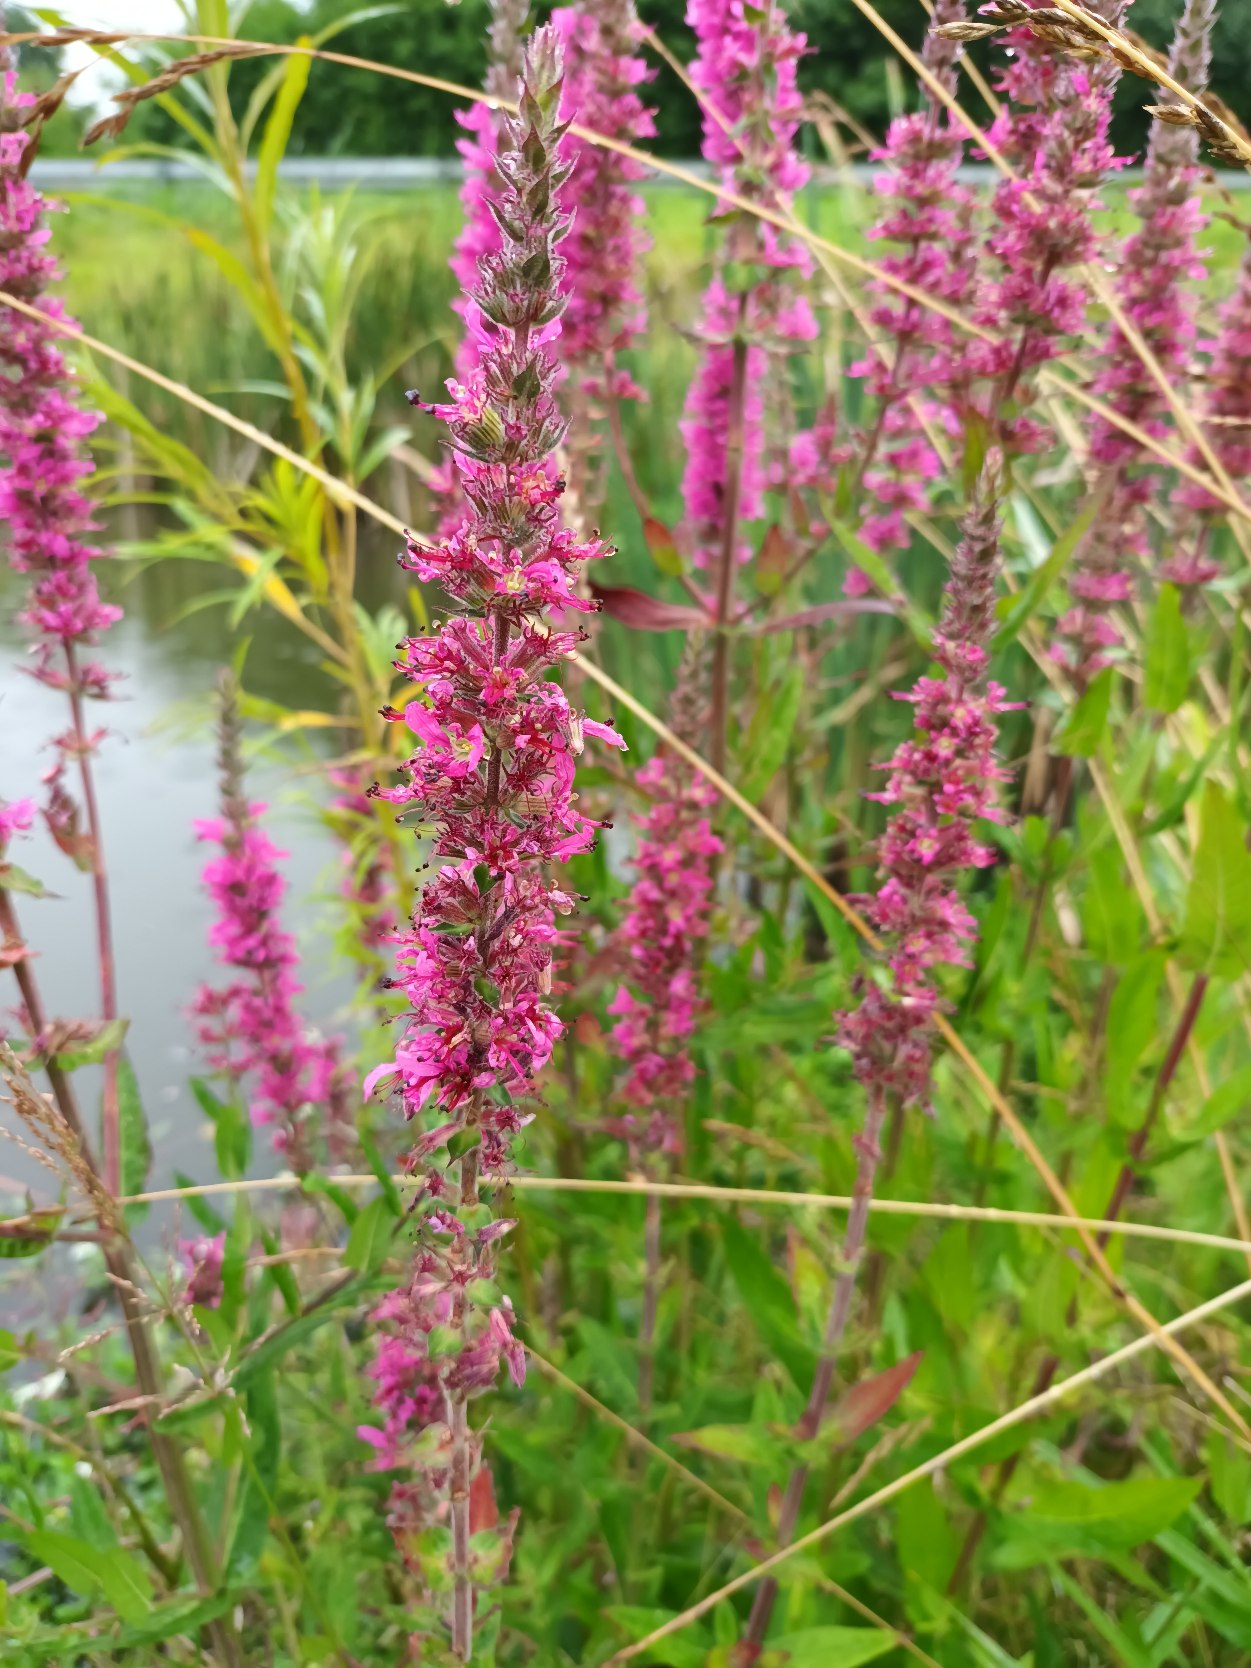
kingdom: Plantae
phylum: Tracheophyta
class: Magnoliopsida
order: Myrtales
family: Lythraceae
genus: Lythrum
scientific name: Lythrum salicaria
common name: Kattehale
